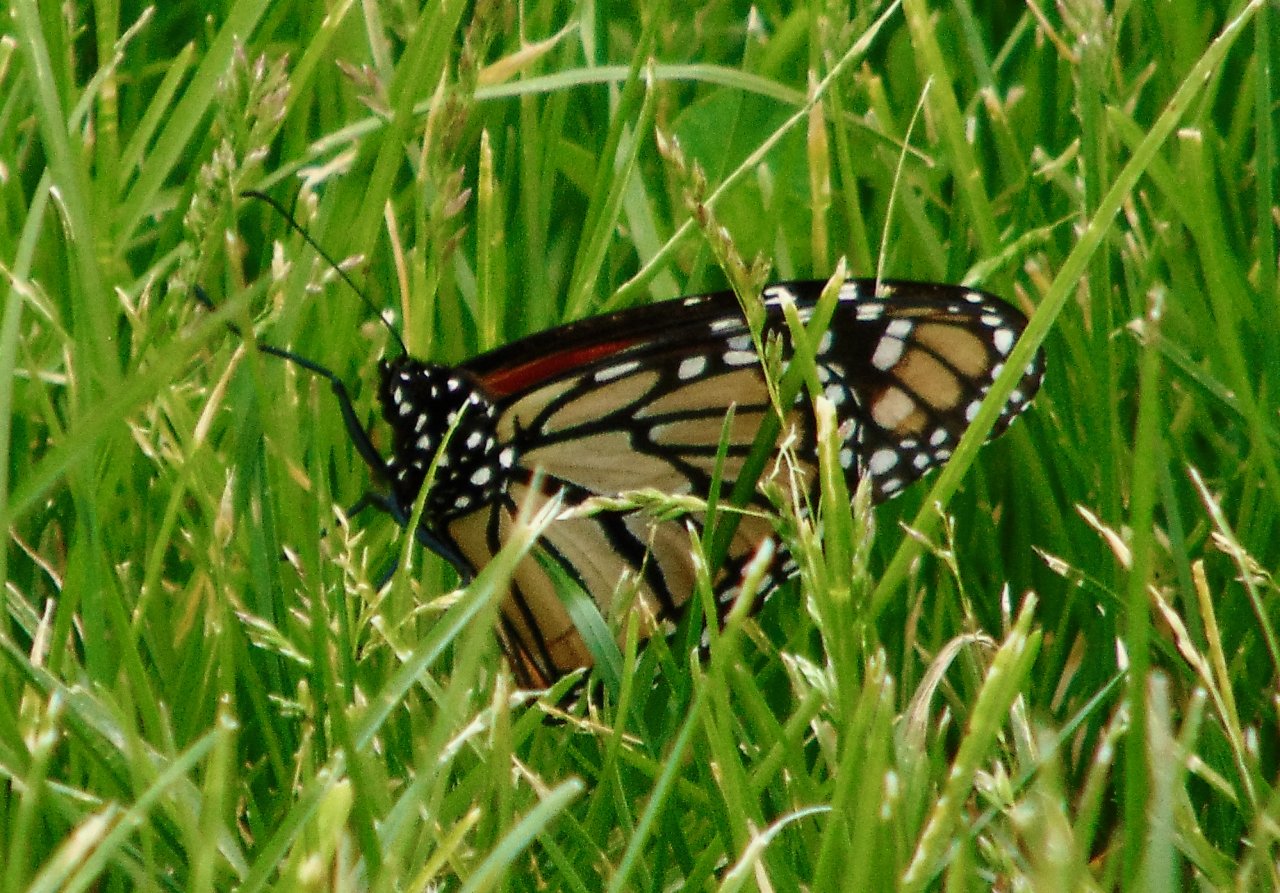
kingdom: Animalia
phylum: Arthropoda
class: Insecta
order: Lepidoptera
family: Nymphalidae
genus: Danaus
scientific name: Danaus plexippus
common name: Monarch
